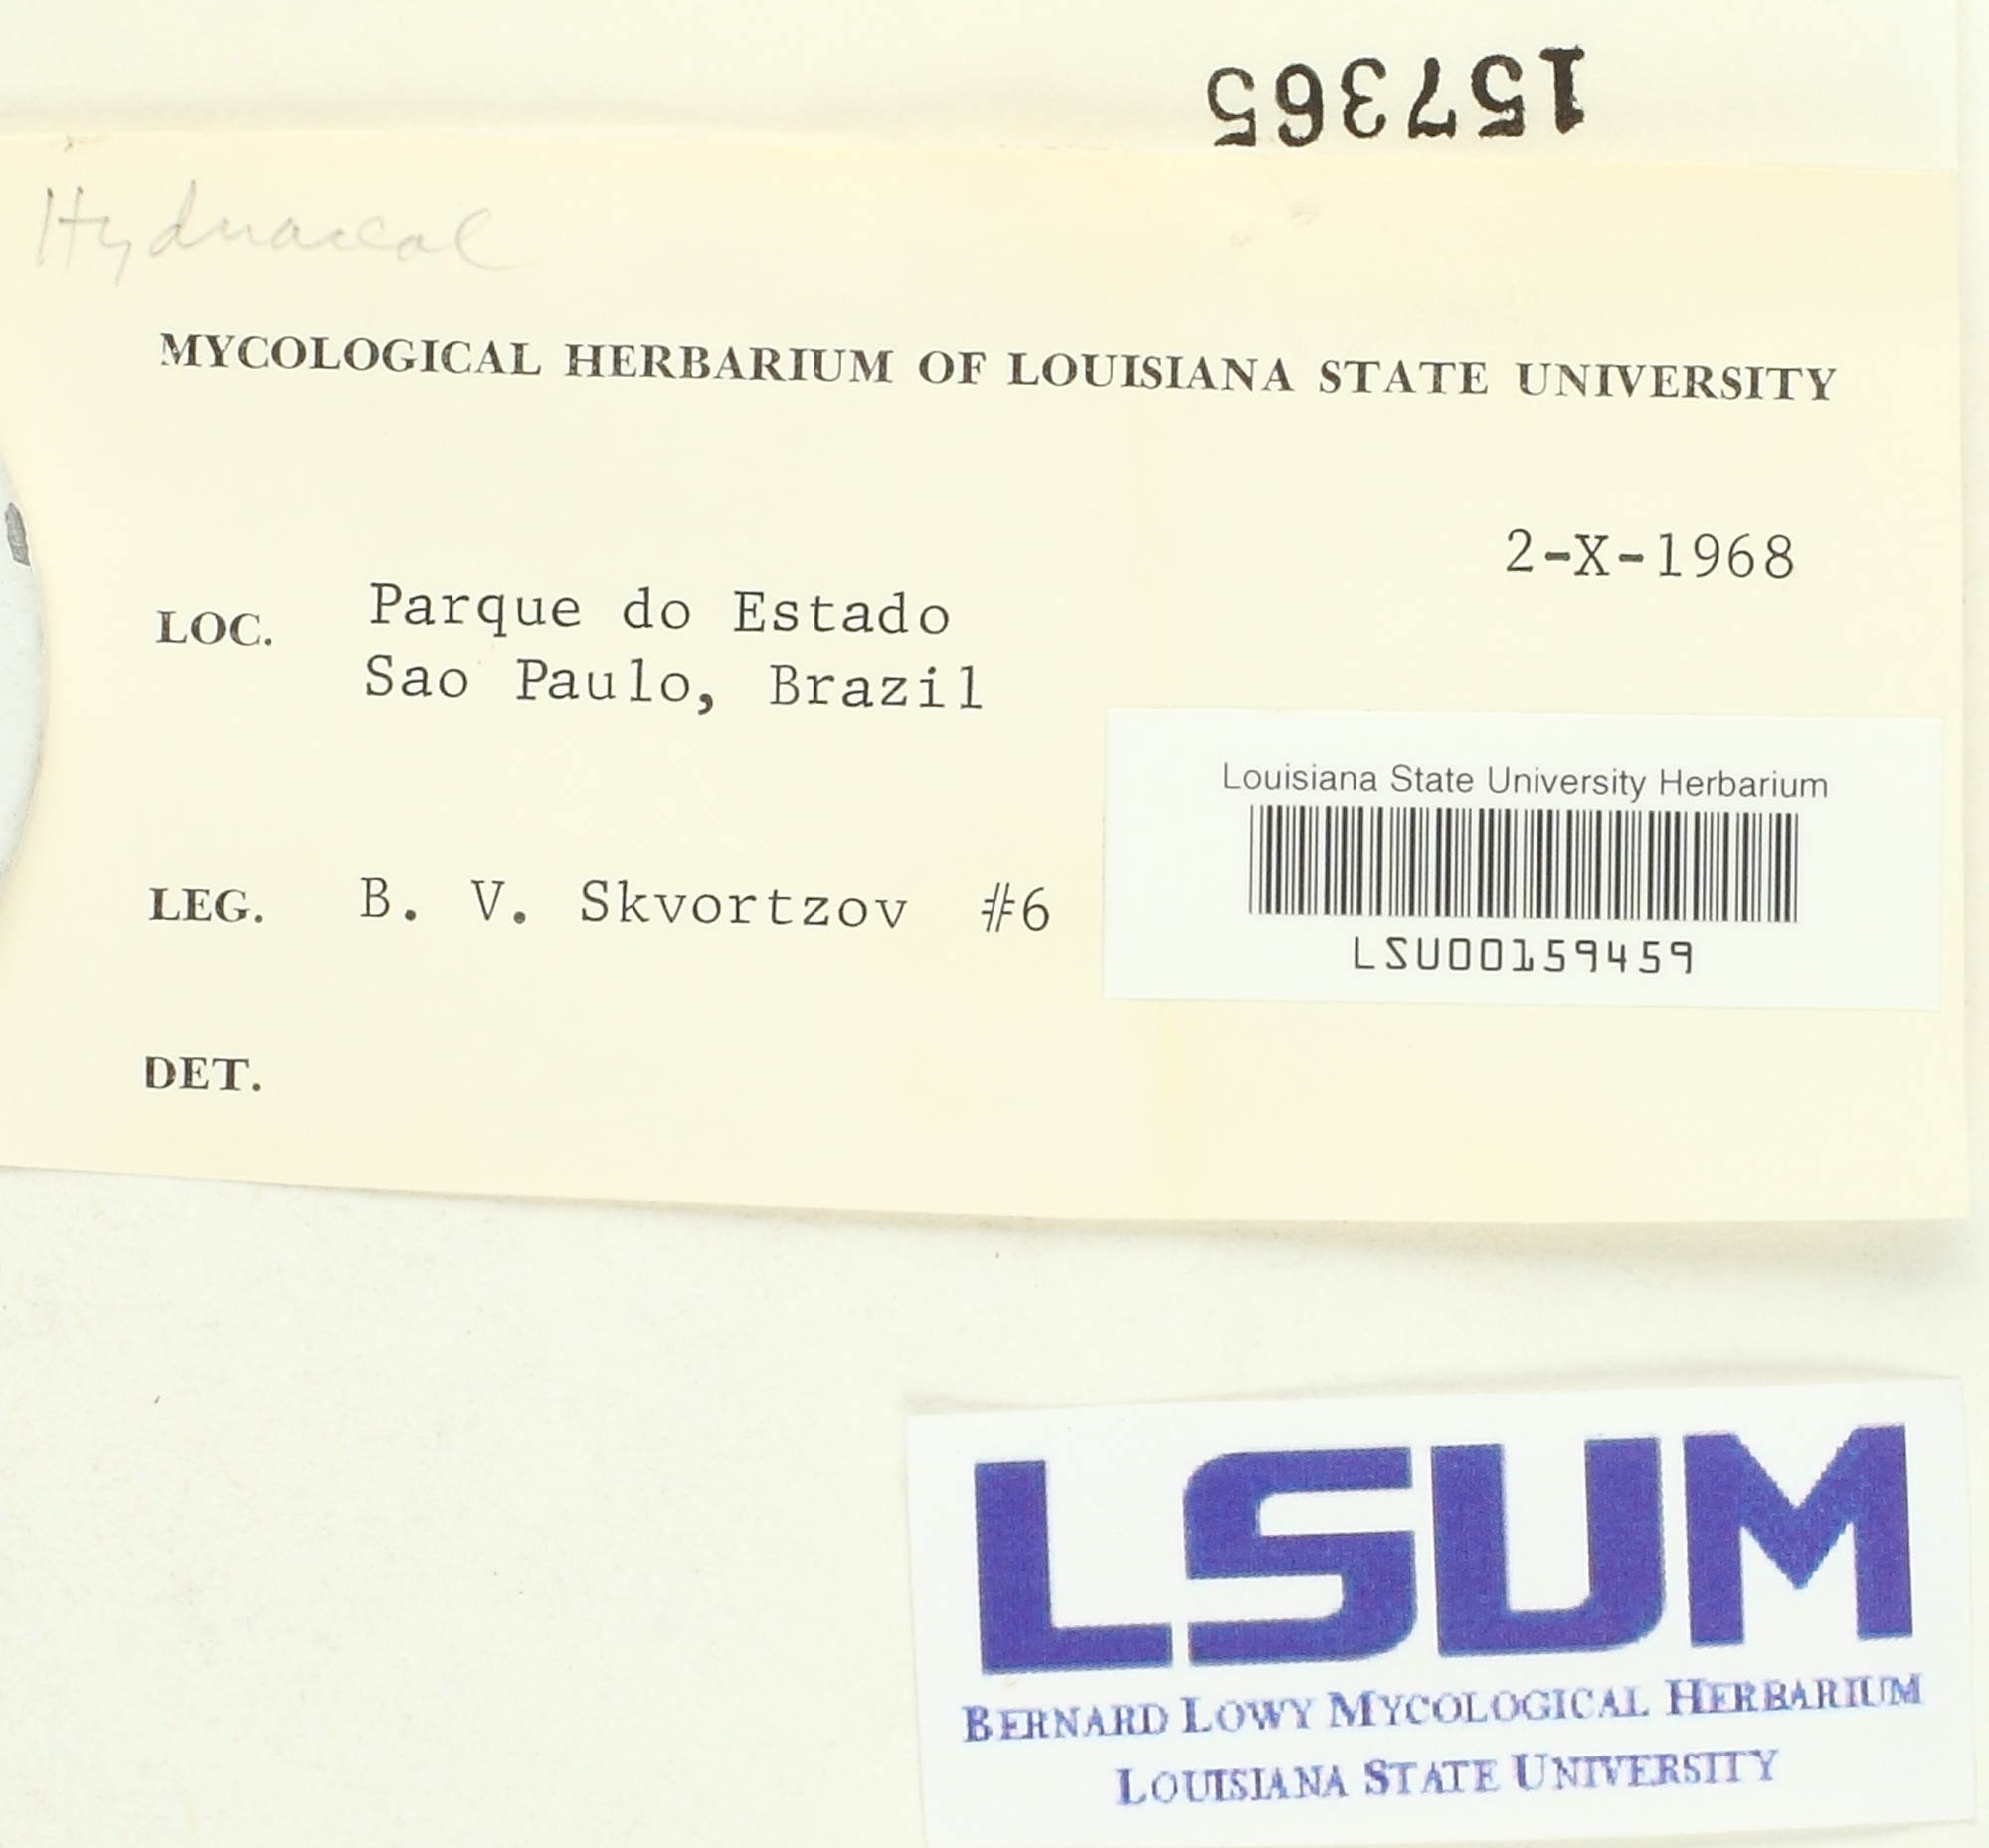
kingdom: Fungi
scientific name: Fungi
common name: Fungi
